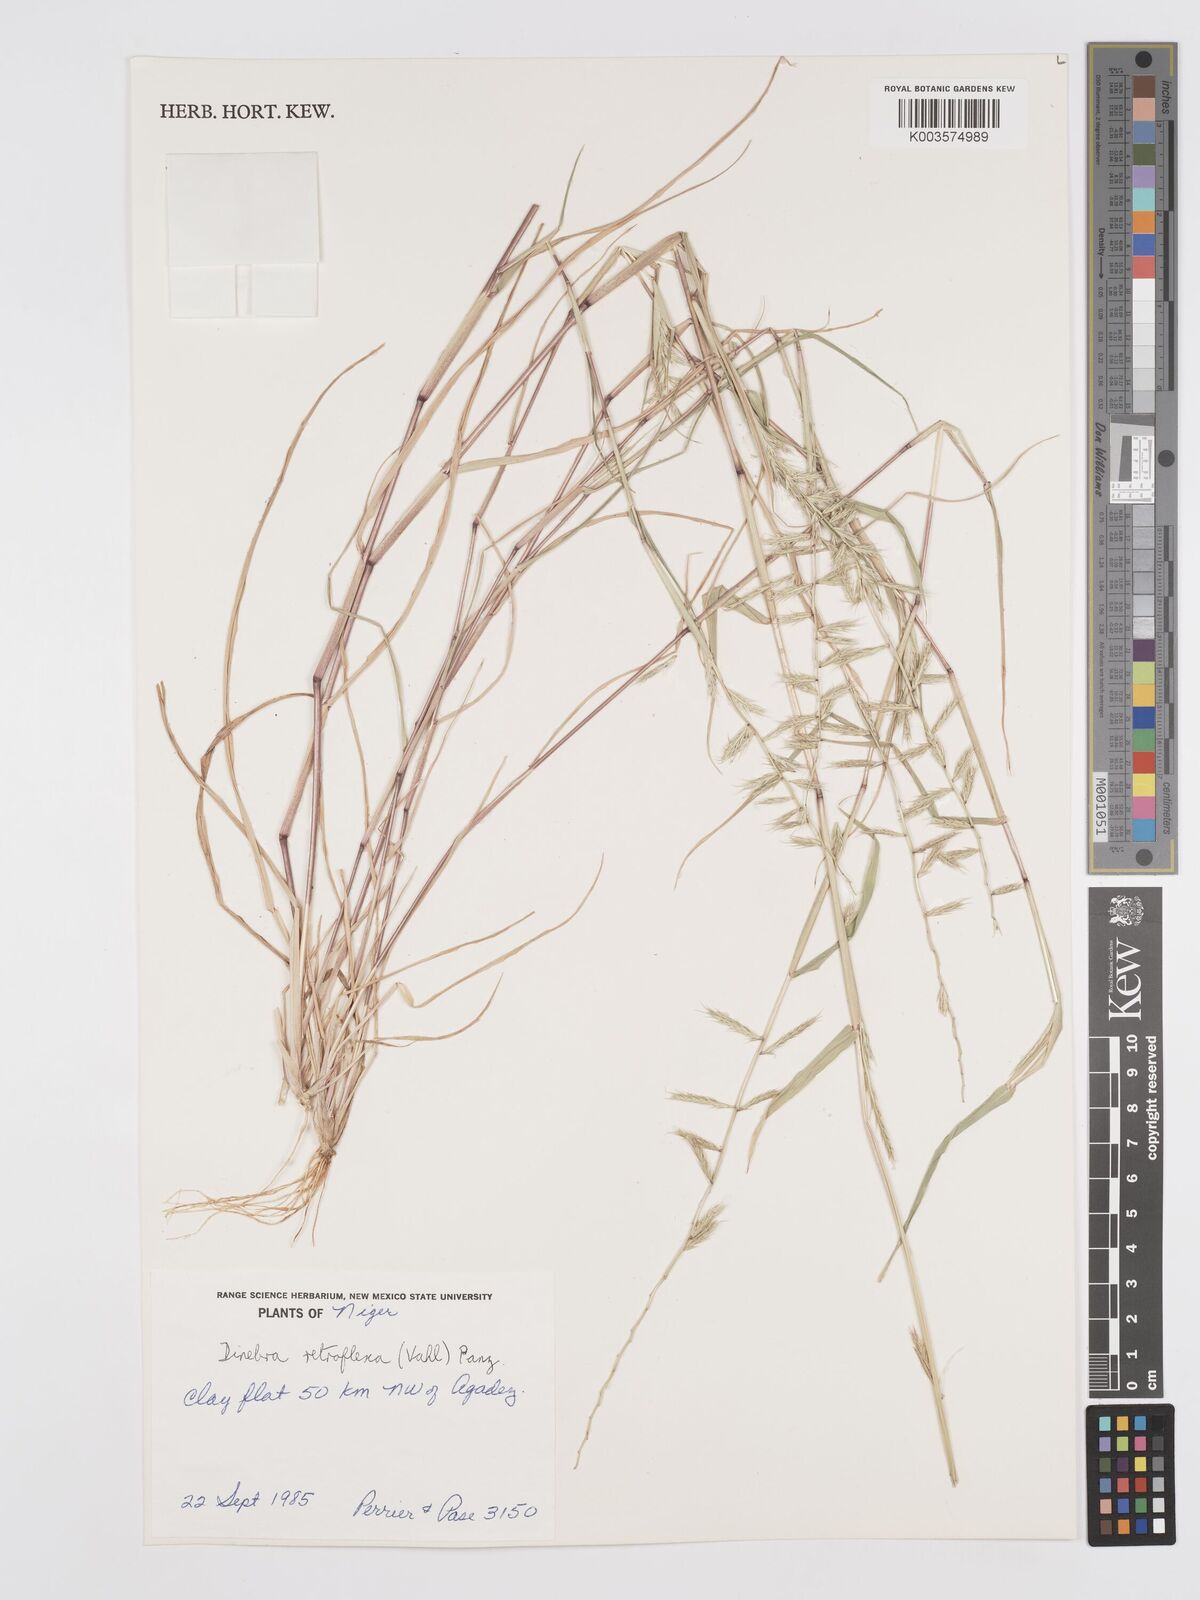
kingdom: Plantae
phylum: Tracheophyta
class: Liliopsida
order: Poales
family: Poaceae
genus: Dinebra
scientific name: Dinebra retroflexa
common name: Viper grass
